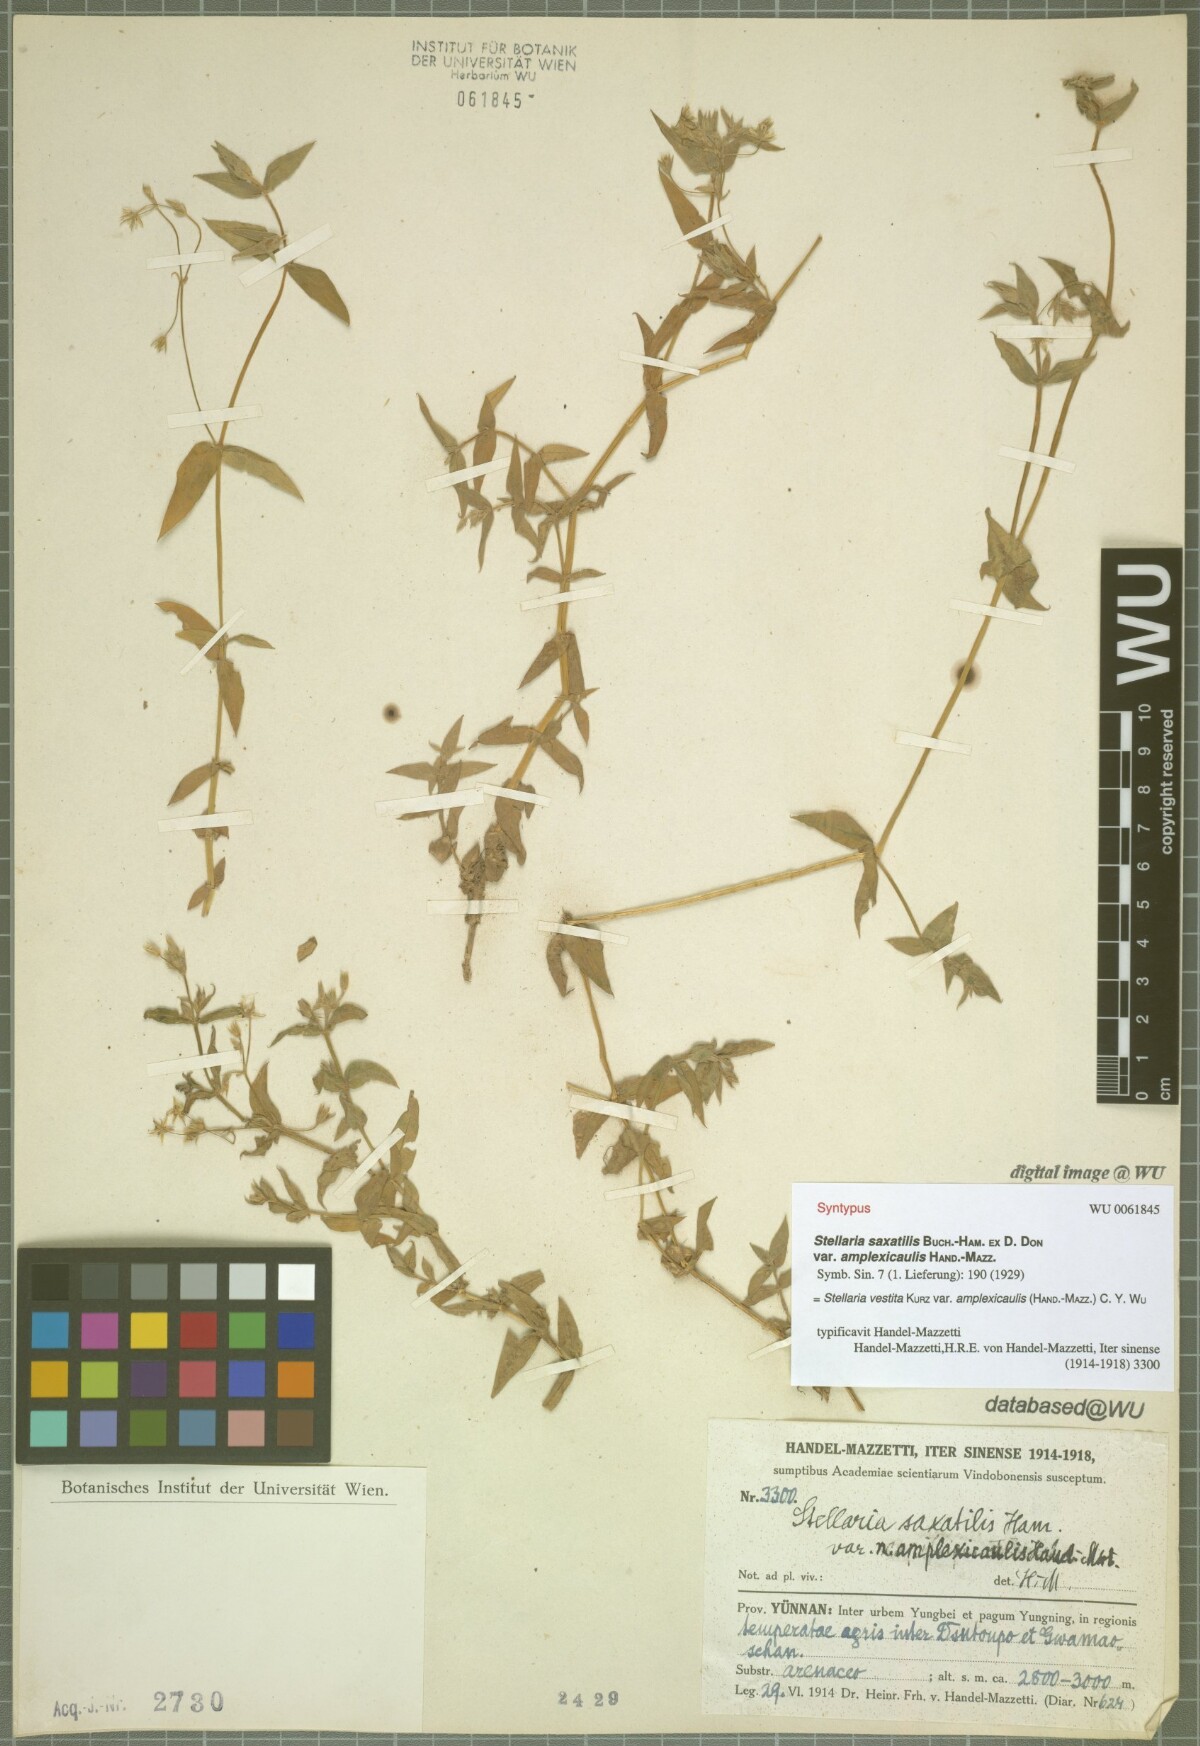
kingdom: Plantae
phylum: Tracheophyta
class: Magnoliopsida
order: Caryophyllales
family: Caryophyllaceae
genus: Stellaria
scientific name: Stellaria amplexicaulis
